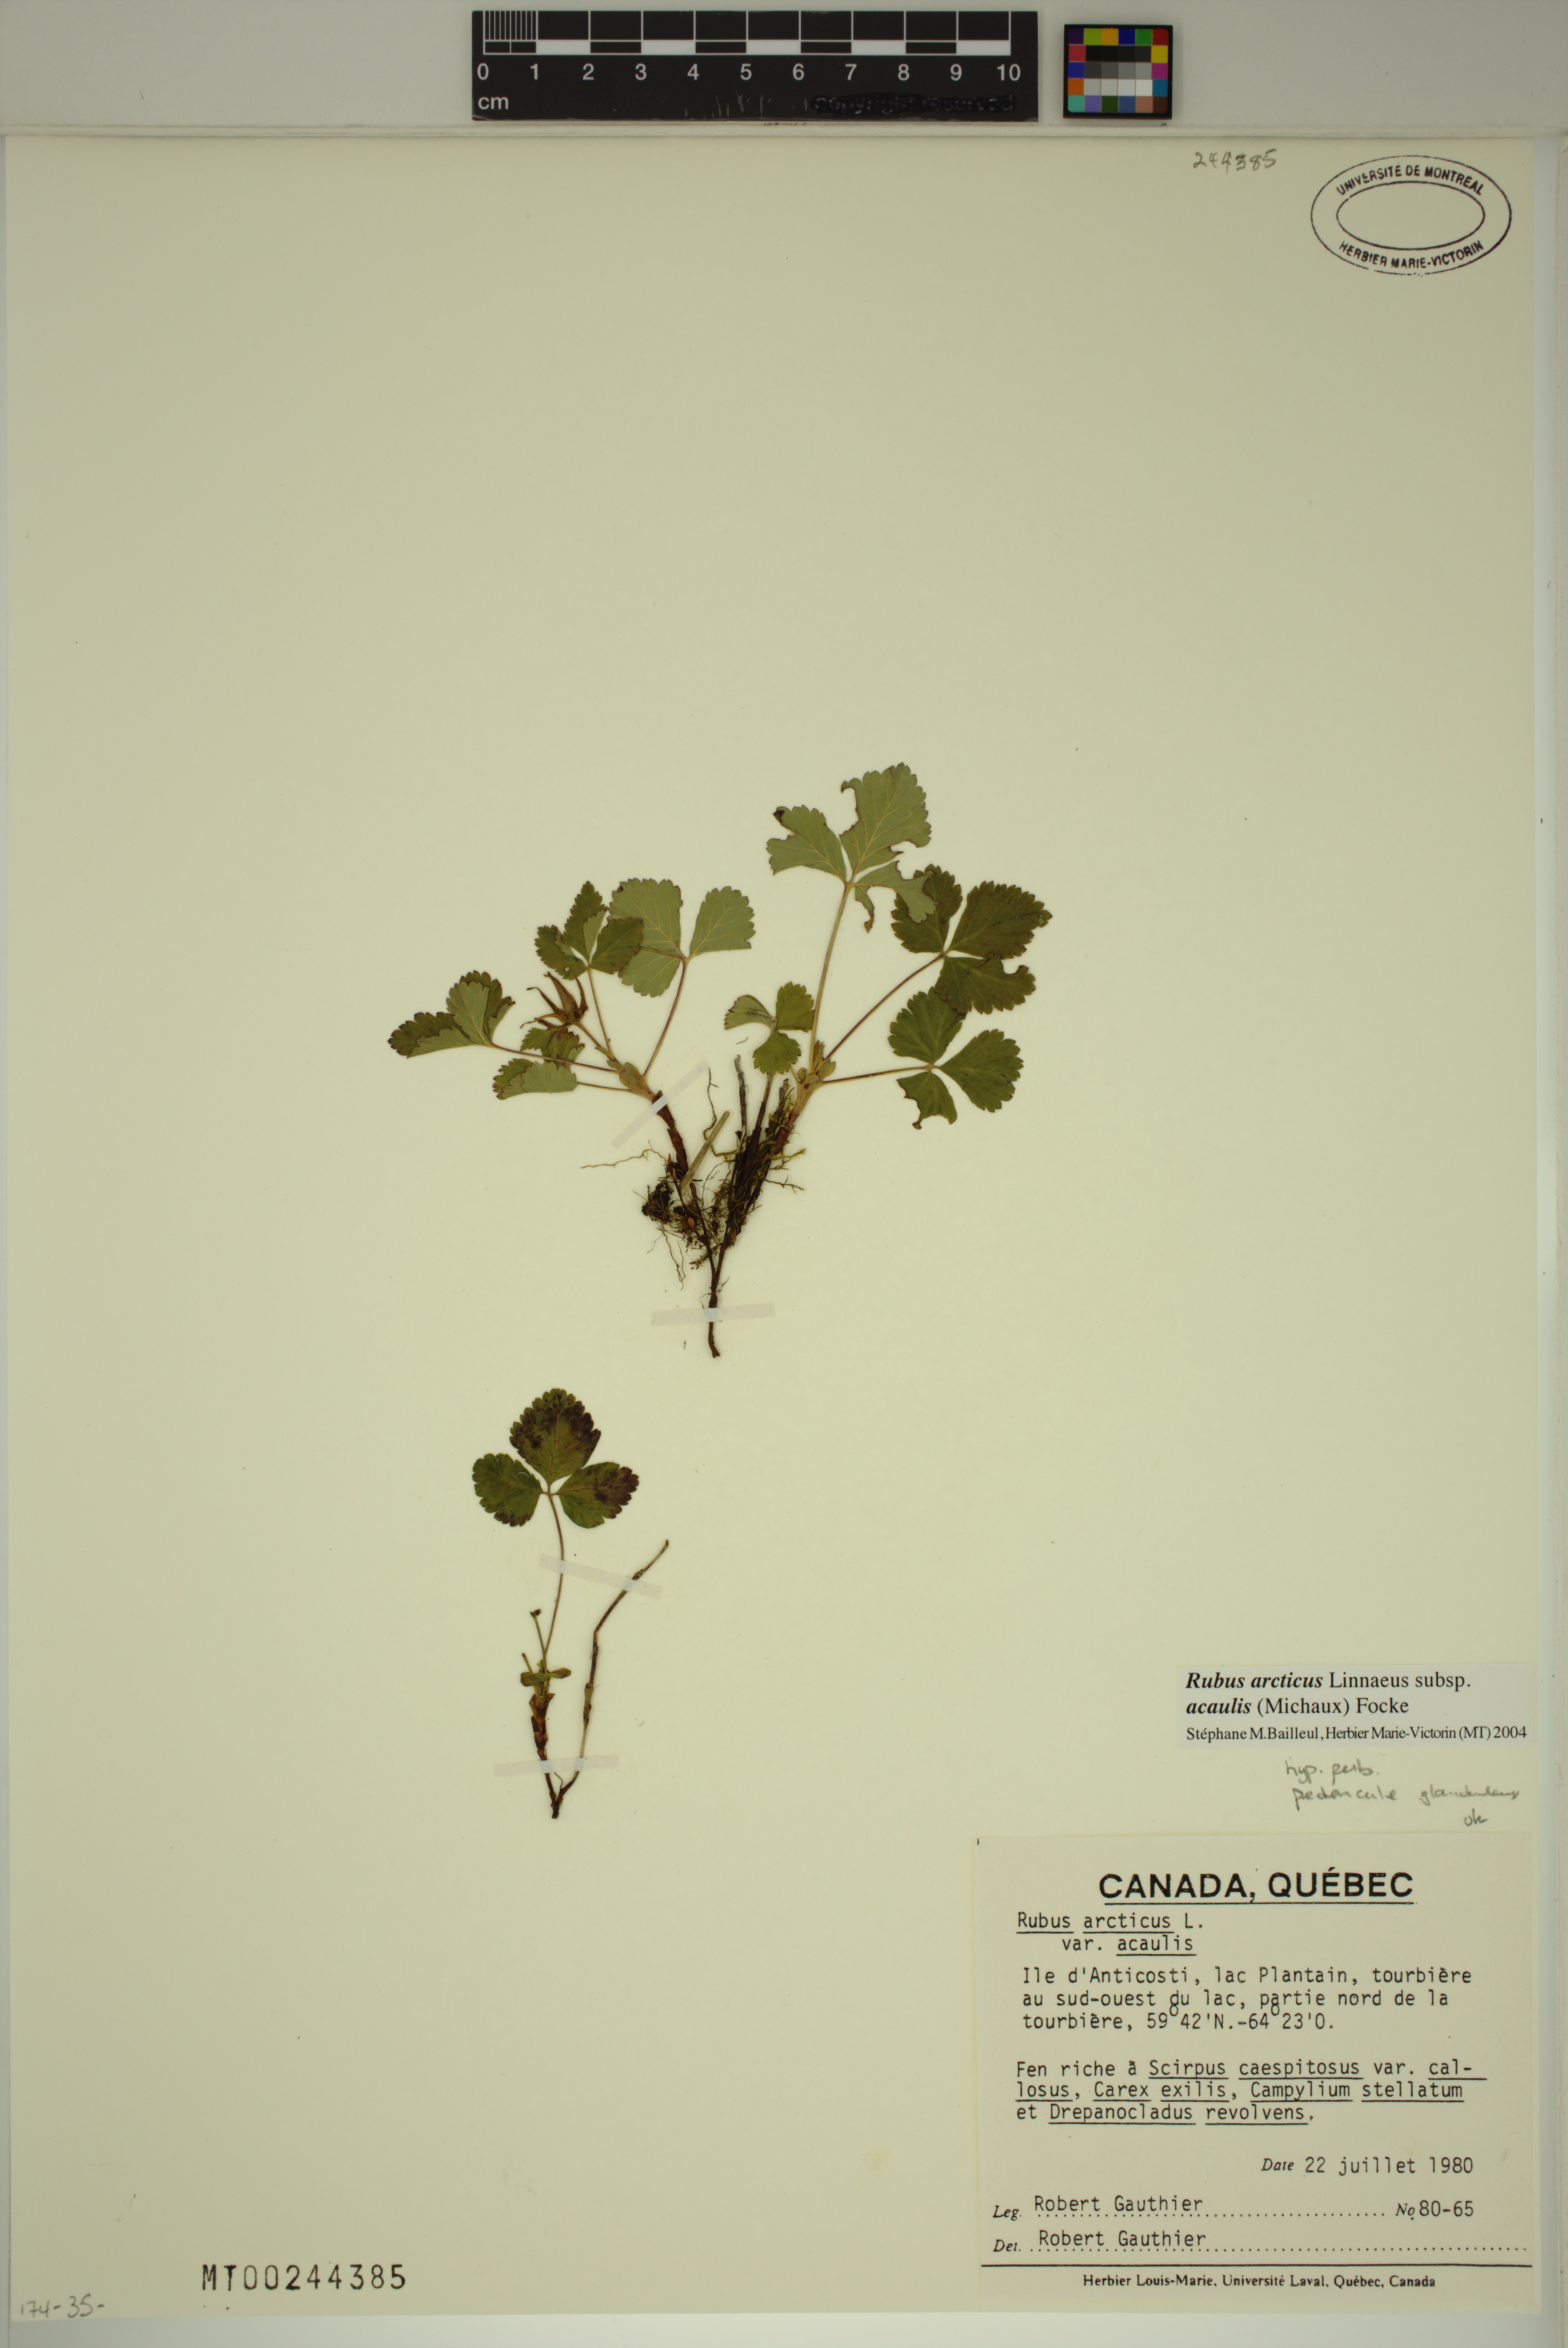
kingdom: Plantae
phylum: Tracheophyta
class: Magnoliopsida
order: Rosales
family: Rosaceae
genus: Rubus
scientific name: Rubus arcticus
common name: Arctic bramble
